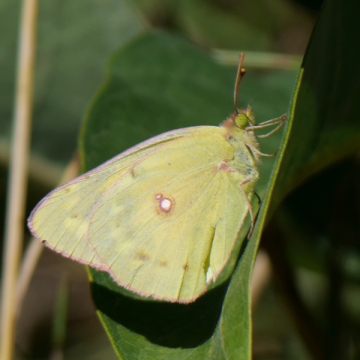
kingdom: Animalia
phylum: Arthropoda
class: Insecta
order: Lepidoptera
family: Pieridae
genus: Colias
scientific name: Colias philodice
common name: Clouded Sulphur
